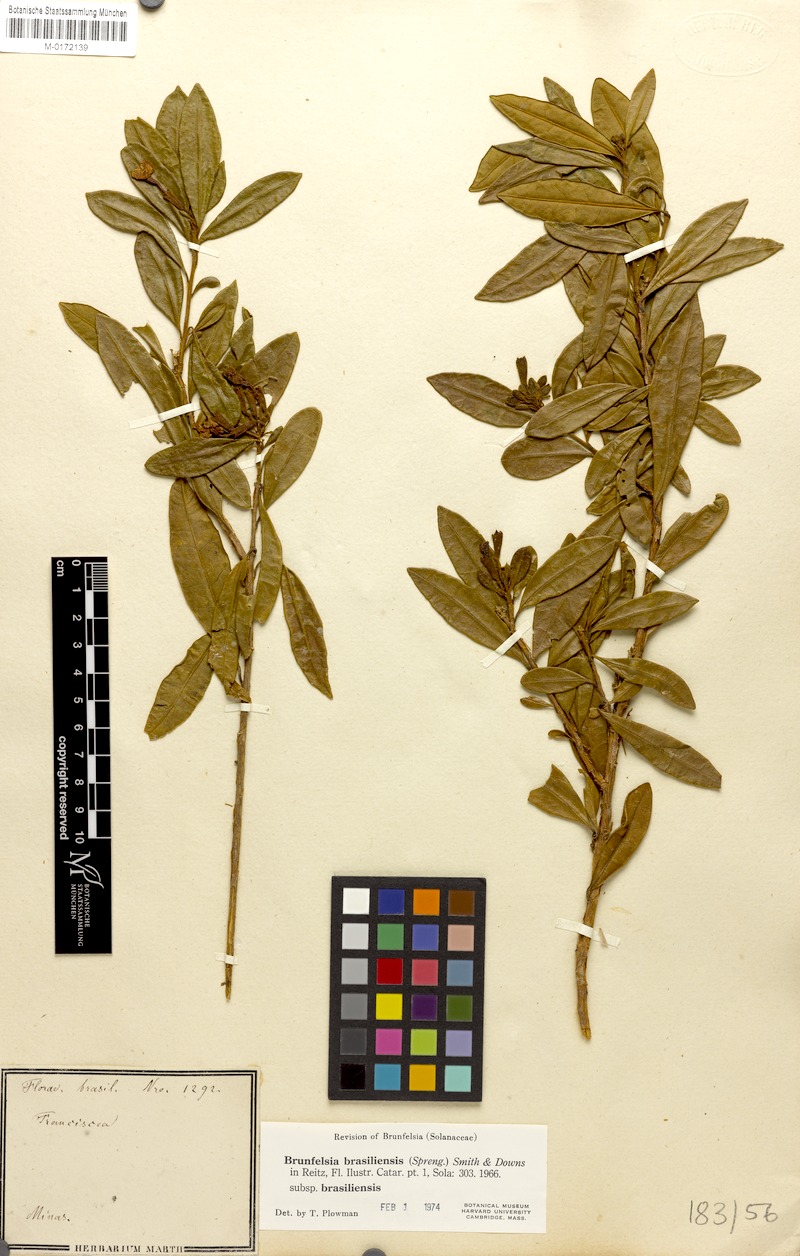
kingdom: Plantae
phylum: Tracheophyta
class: Magnoliopsida
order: Solanales
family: Solanaceae
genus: Brunfelsia
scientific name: Brunfelsia brasiliensis
